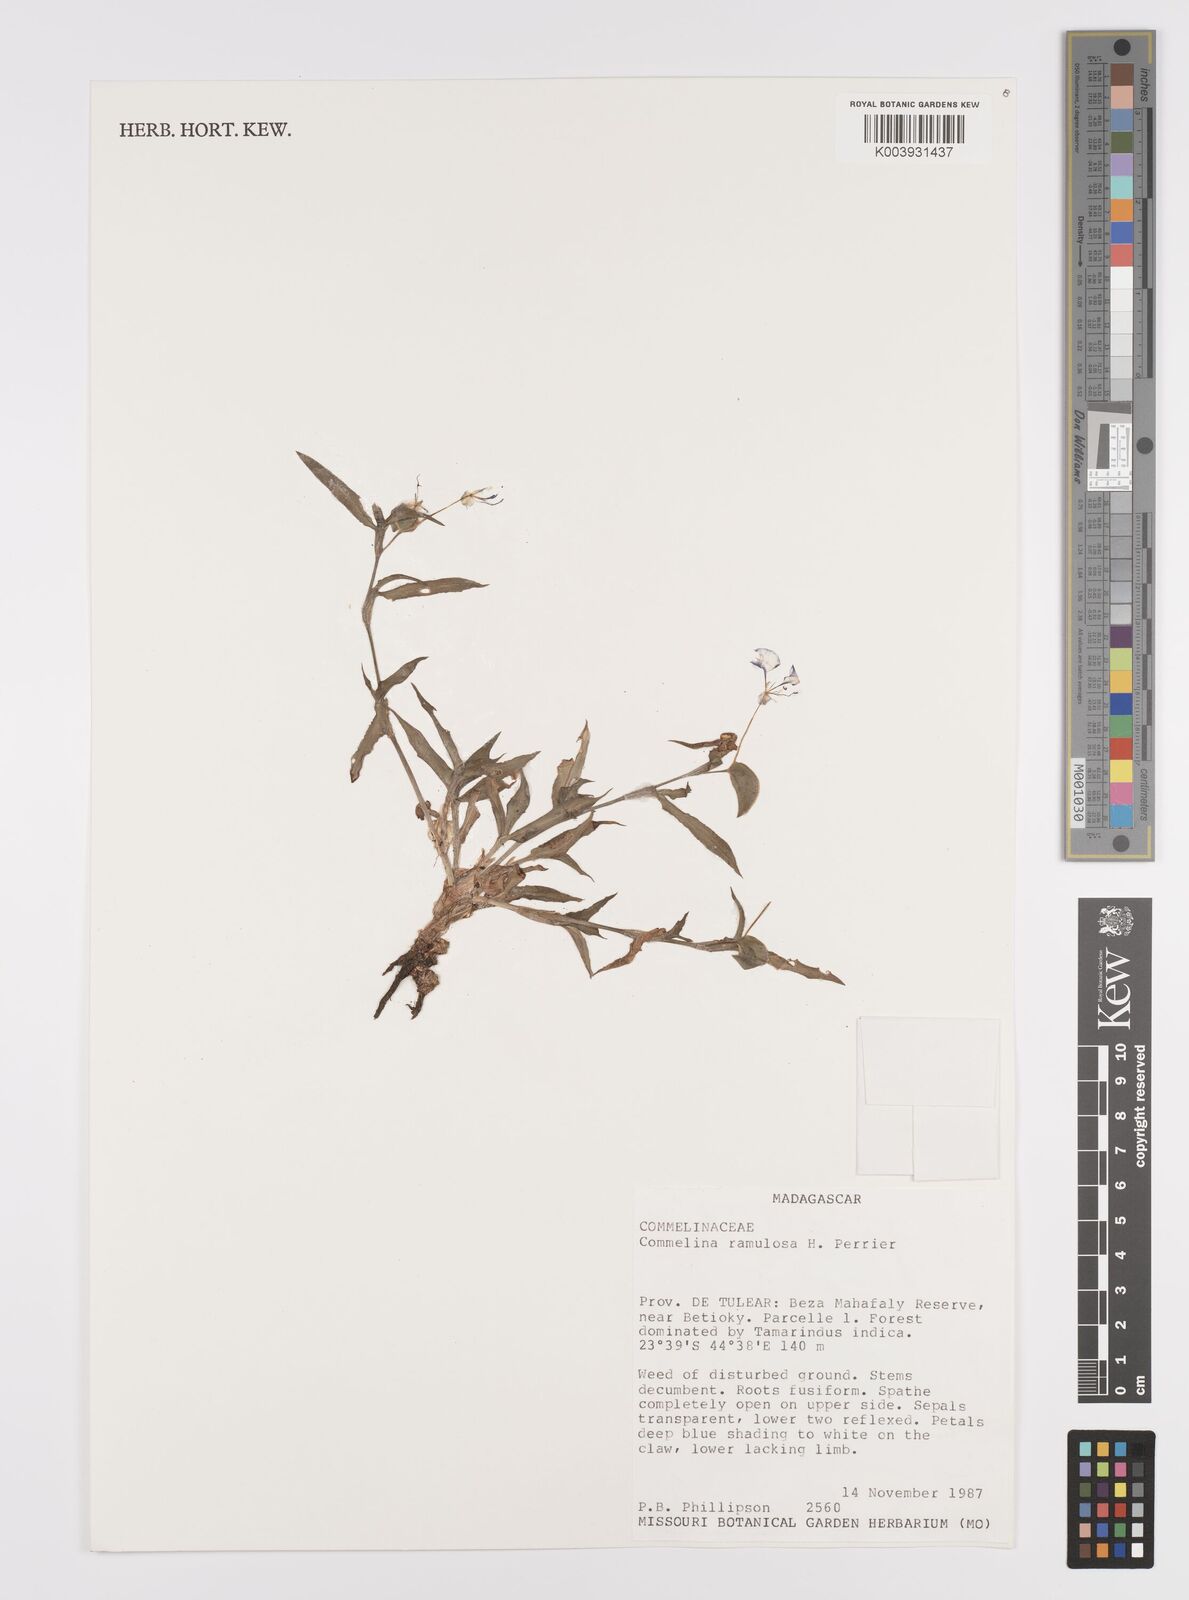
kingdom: Plantae
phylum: Tracheophyta
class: Liliopsida
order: Commelinales
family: Commelinaceae
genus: Commelina
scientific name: Commelina ramulosa
